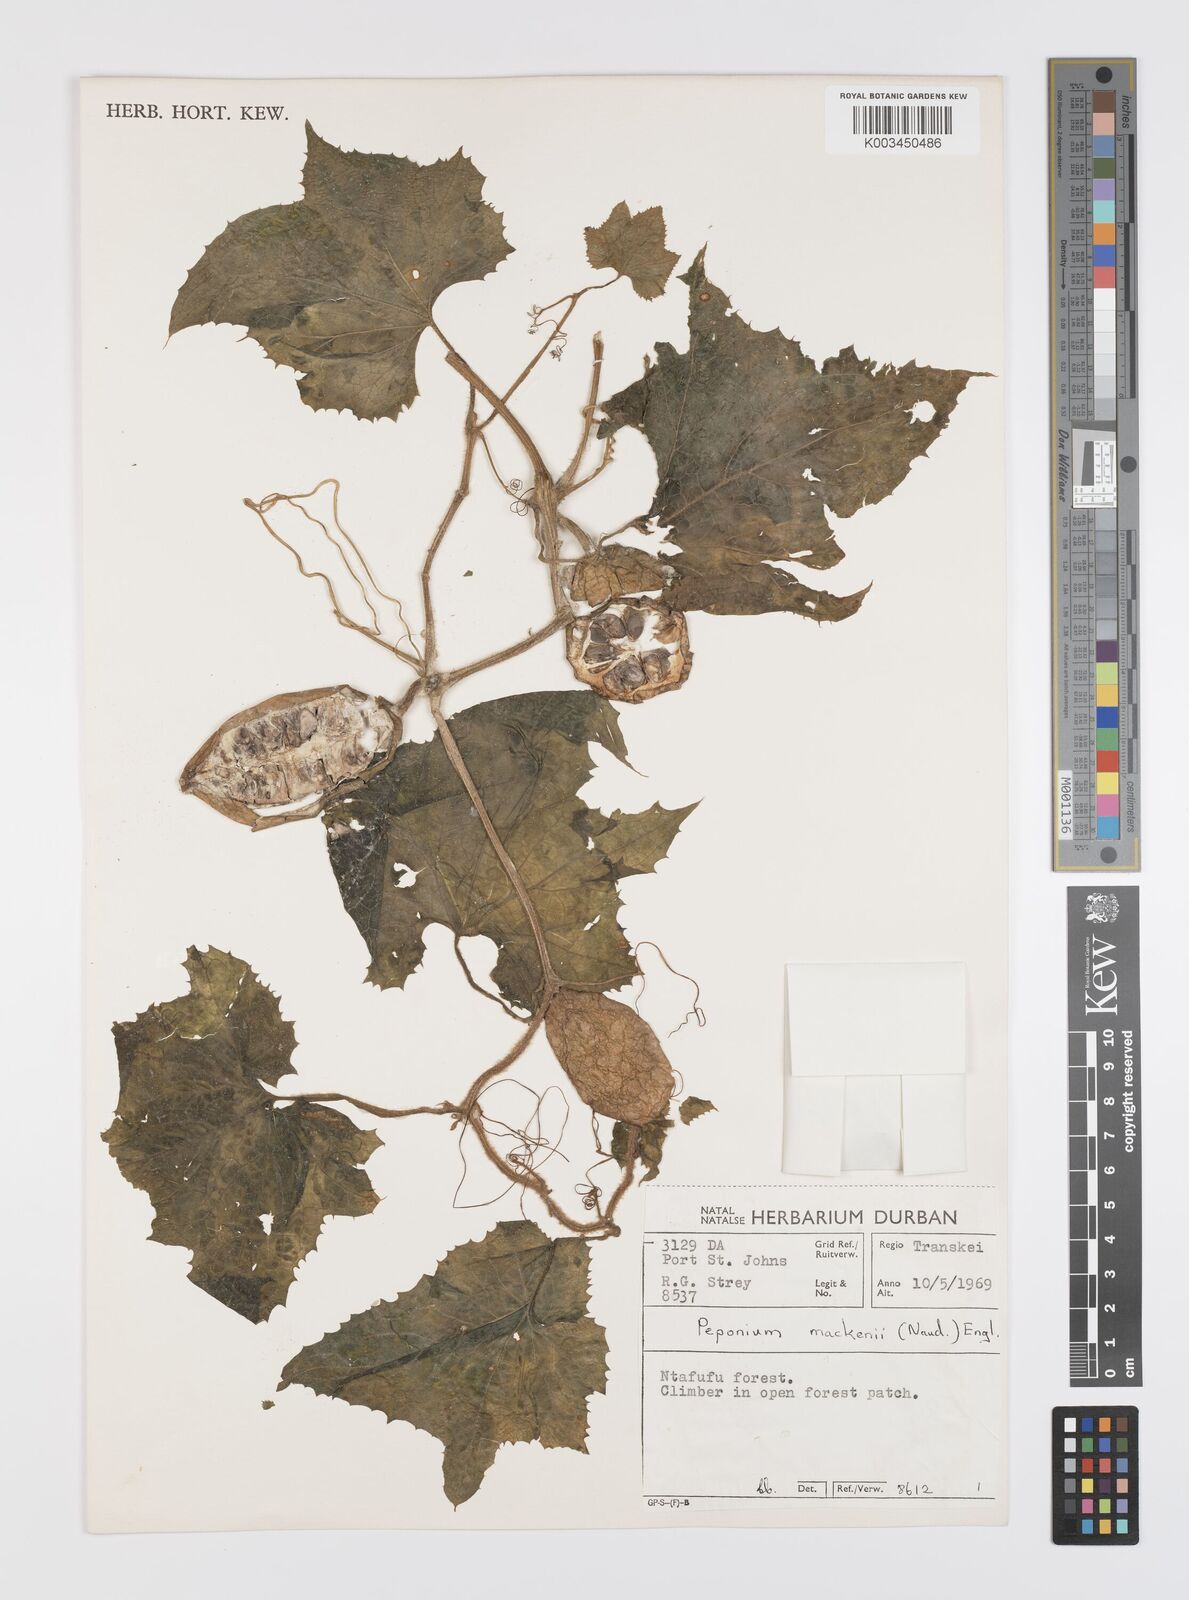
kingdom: Plantae
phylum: Tracheophyta
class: Magnoliopsida
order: Cucurbitales
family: Cucurbitaceae
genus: Peponium
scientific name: Peponium mackenii
